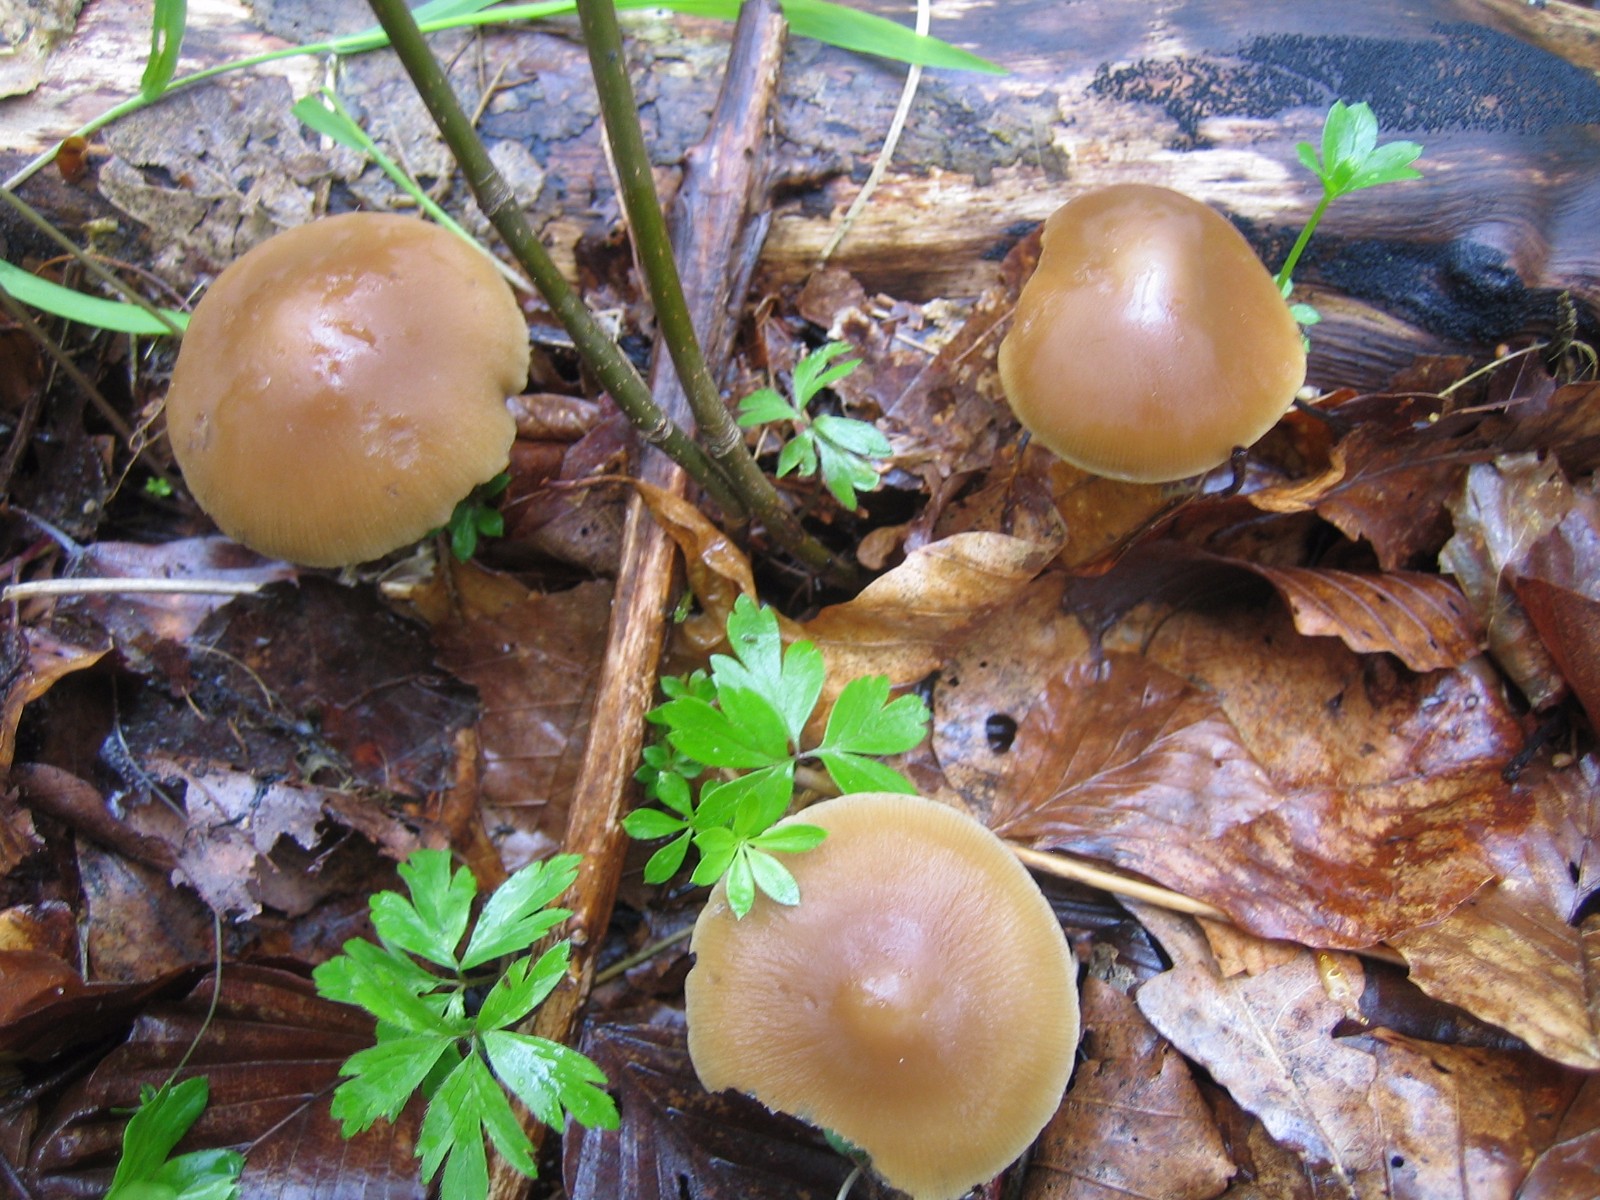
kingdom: Fungi
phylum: Basidiomycota
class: Agaricomycetes
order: Agaricales
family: Psathyrellaceae
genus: Psathyrella
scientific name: Psathyrella
